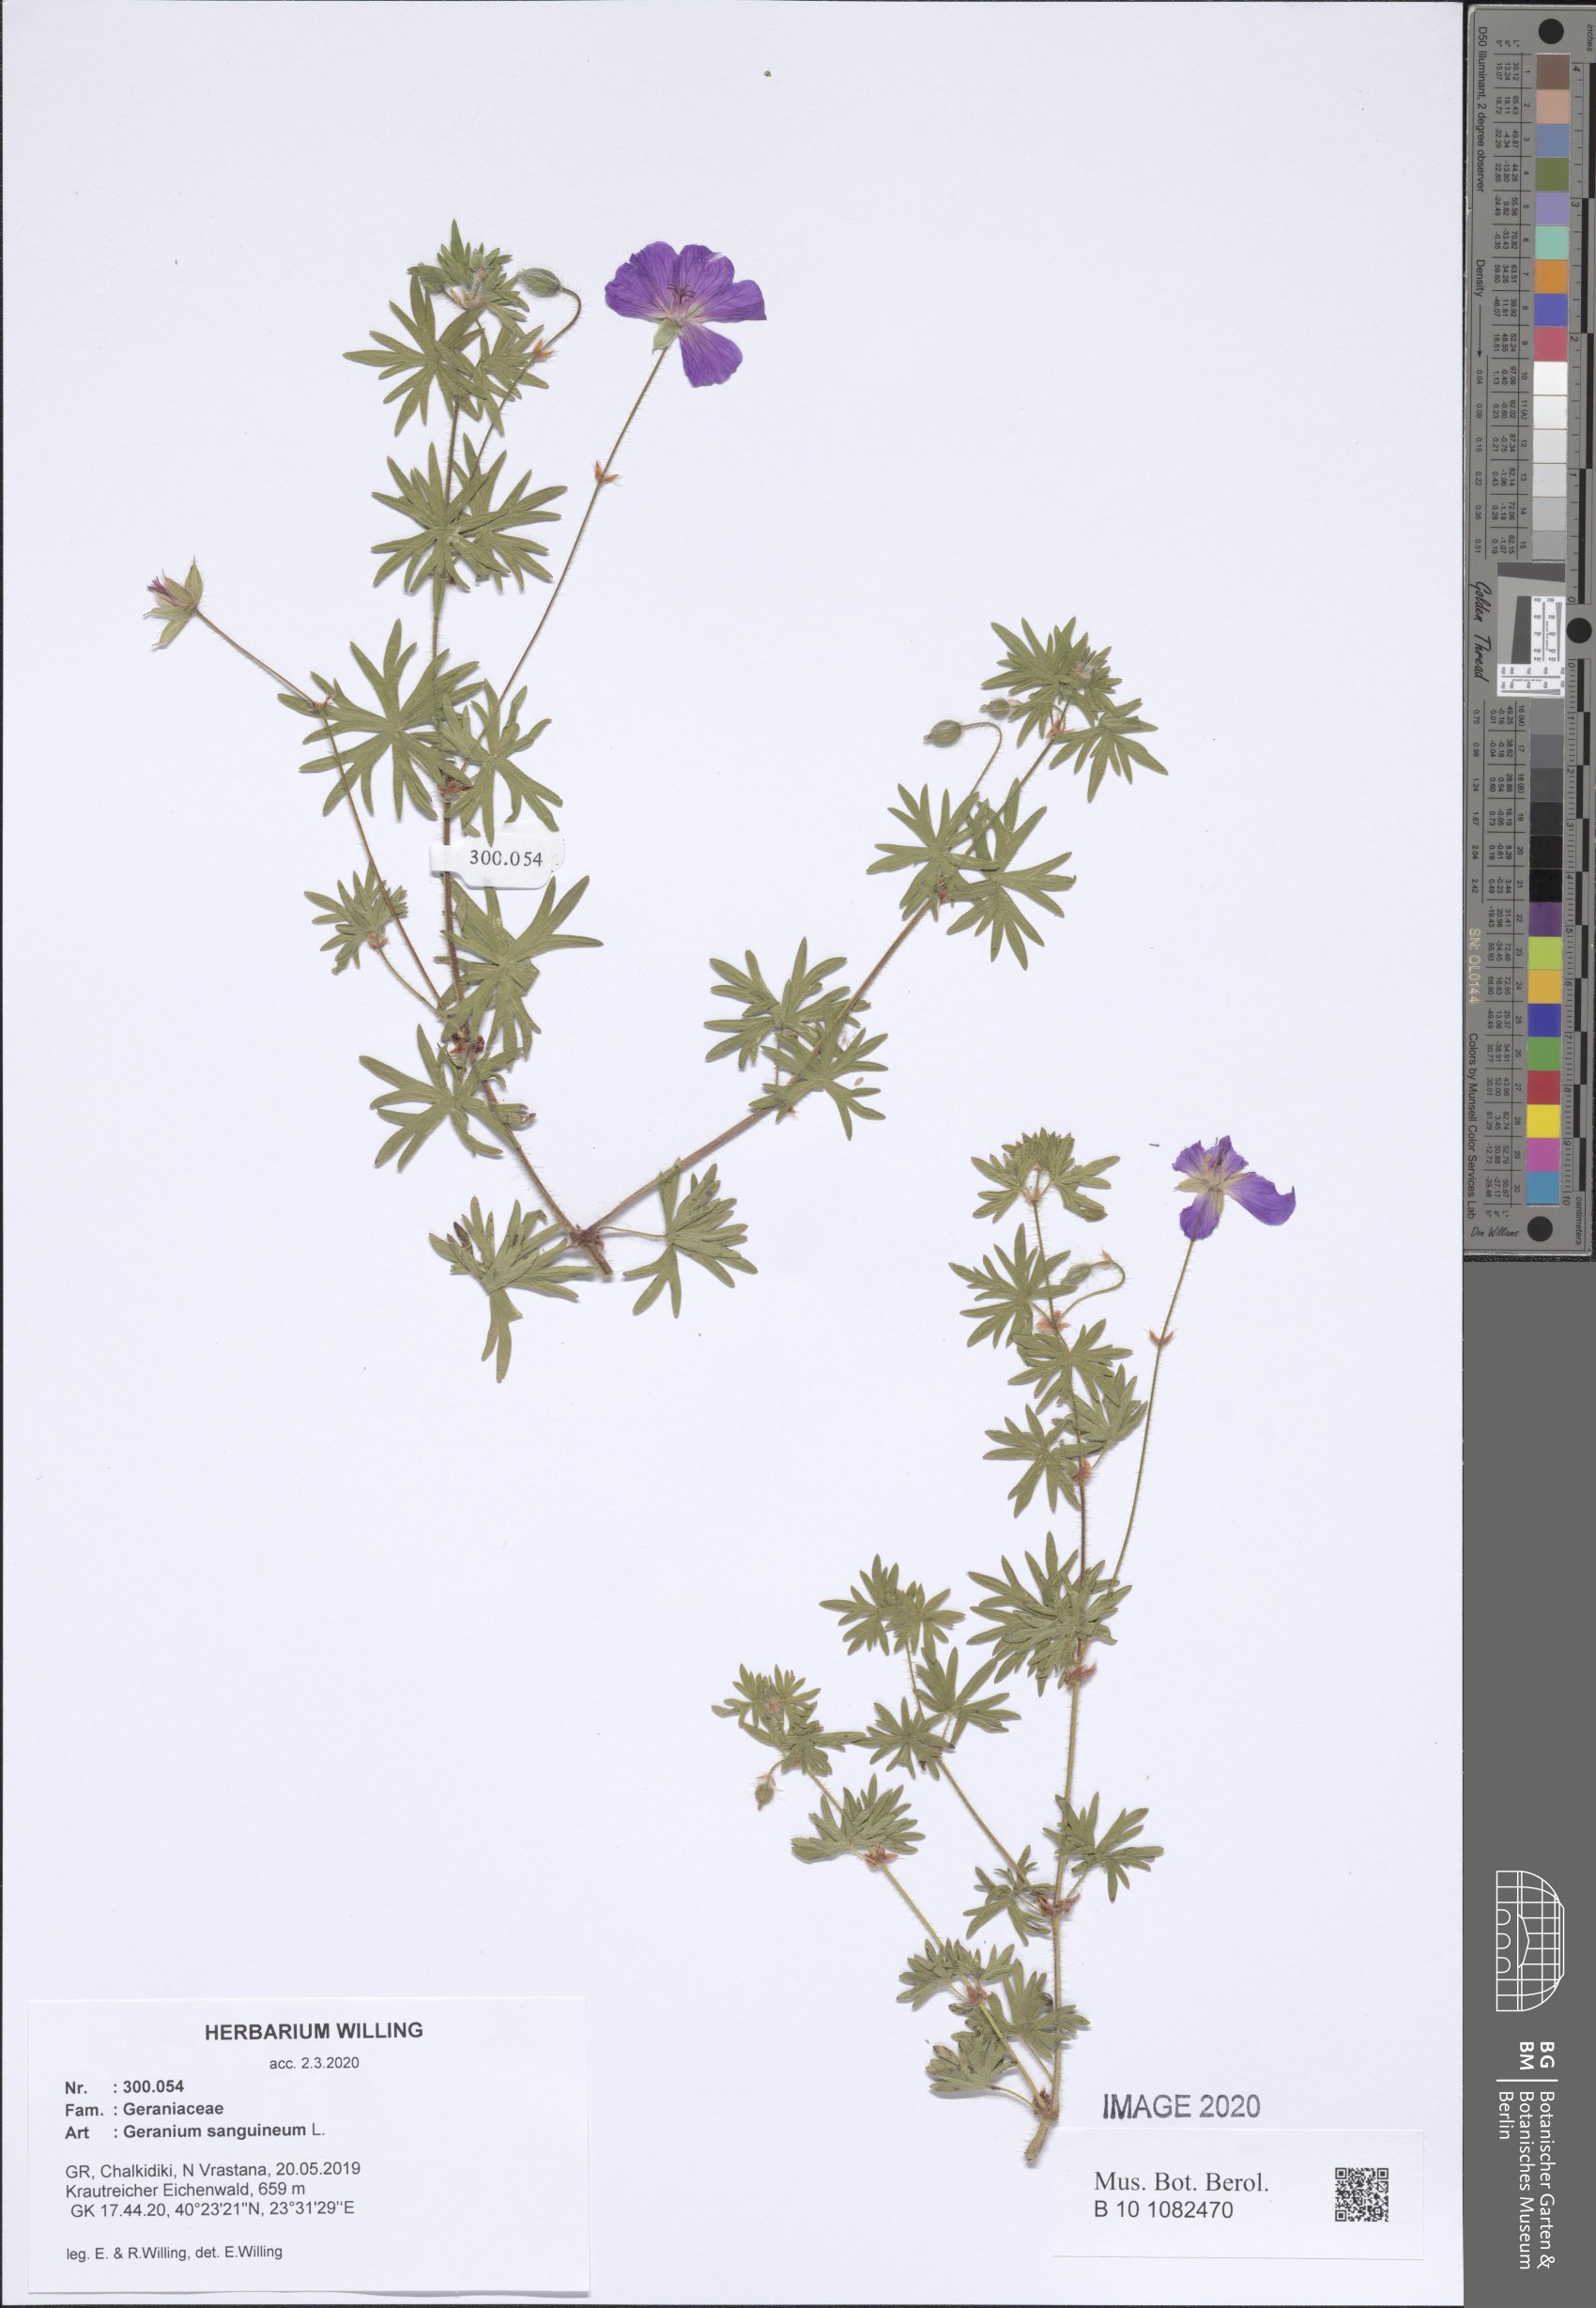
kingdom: Plantae
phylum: Tracheophyta
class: Magnoliopsida
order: Geraniales
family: Geraniaceae
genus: Geranium
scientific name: Geranium sanguineum
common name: Bloody crane's-bill
